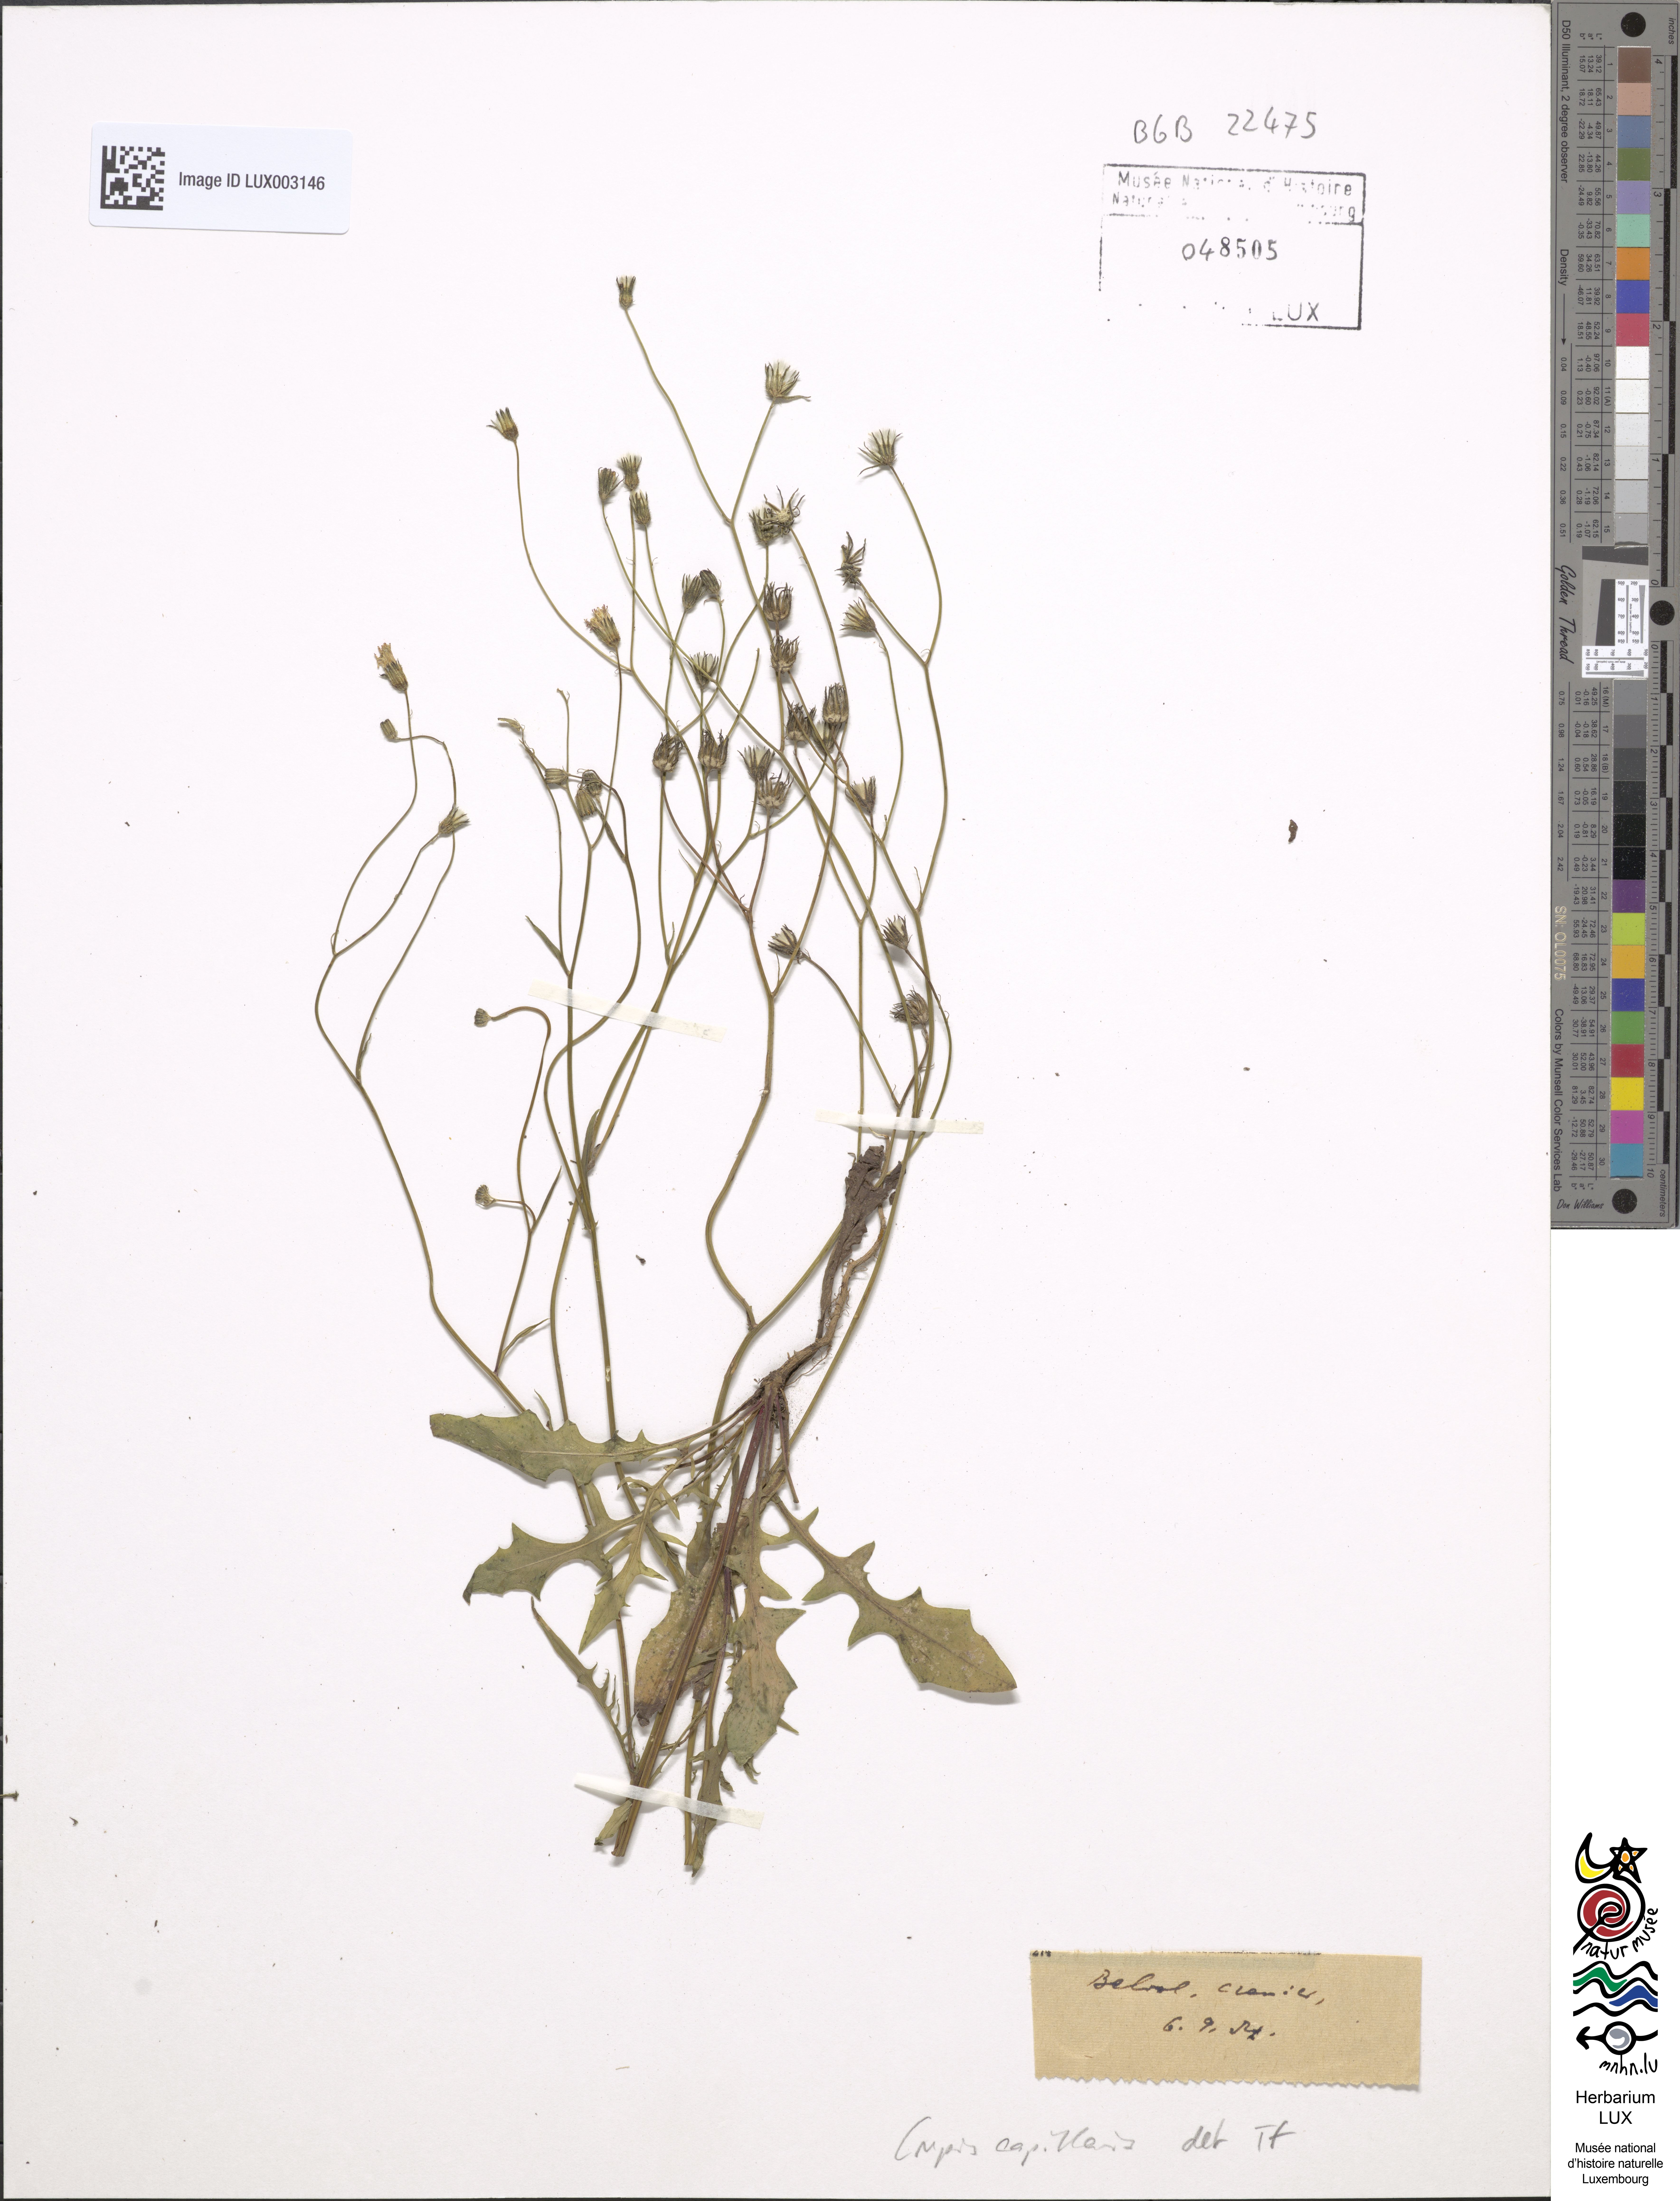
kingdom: Plantae
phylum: Tracheophyta
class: Magnoliopsida
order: Asterales
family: Asteraceae
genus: Crepis
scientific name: Crepis capillaris
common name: Smooth hawksbeard
